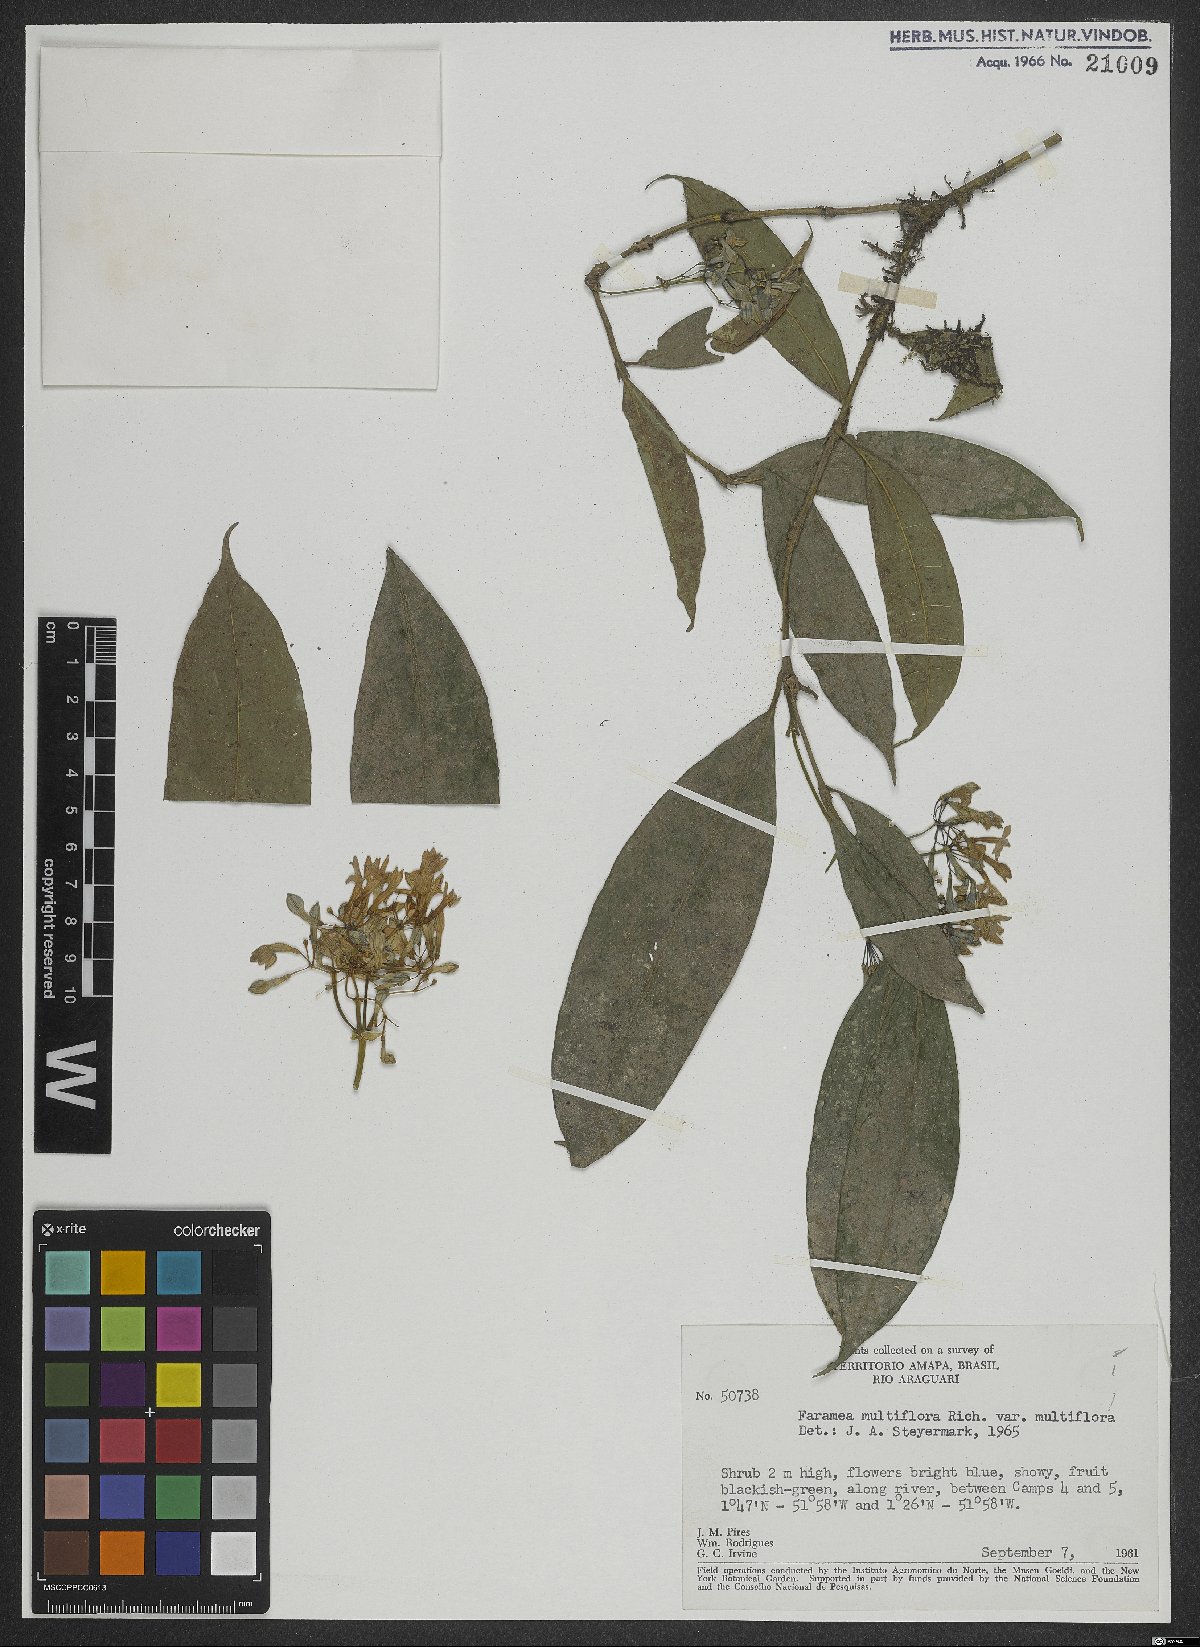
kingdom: Plantae
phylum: Tracheophyta
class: Magnoliopsida
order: Gentianales
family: Rubiaceae
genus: Faramea
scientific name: Faramea multiflora
